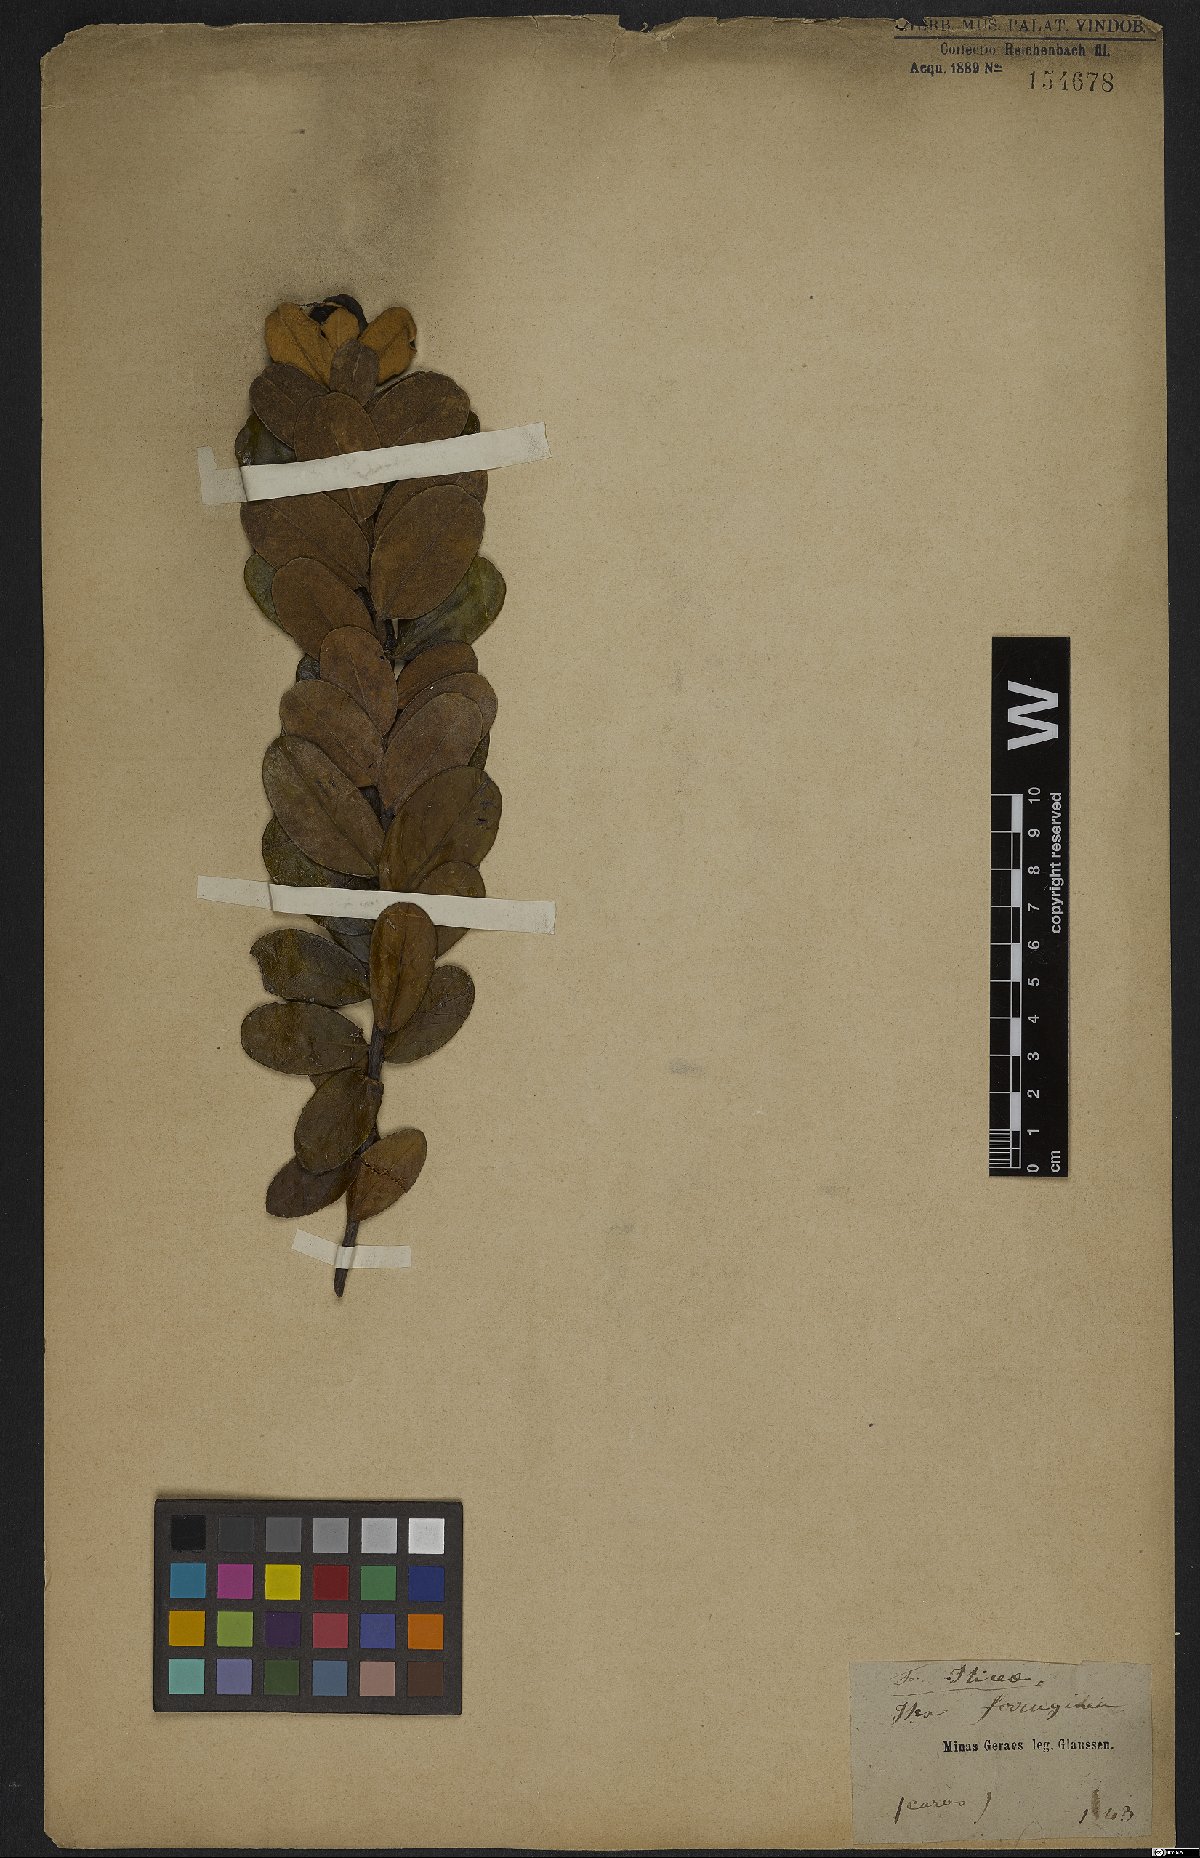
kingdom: Plantae
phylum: Tracheophyta
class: Magnoliopsida
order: Aquifoliales
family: Aquifoliaceae
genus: Ilex
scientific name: Ilex ferruginea
